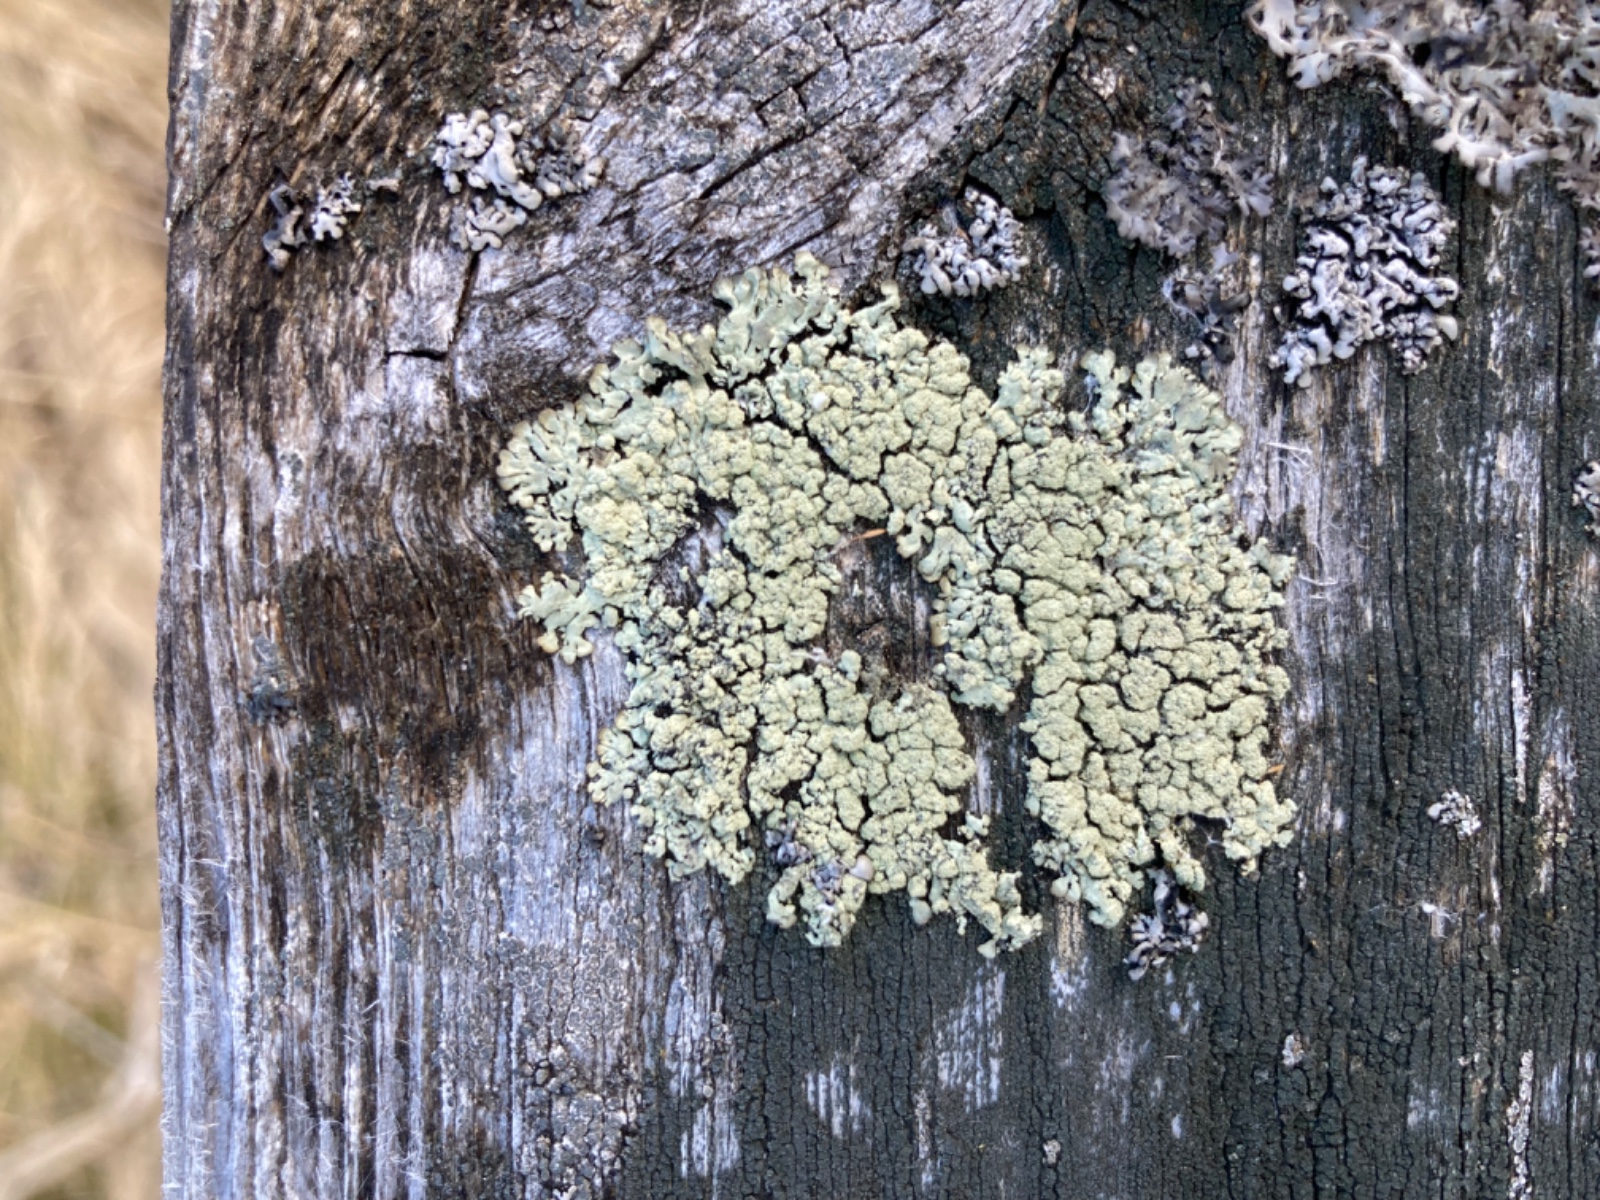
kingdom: Fungi
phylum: Ascomycota
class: Lecanoromycetes
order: Lecanorales
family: Parmeliaceae
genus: Parmeliopsis
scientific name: Parmeliopsis ambigua
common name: gul stolpelav
